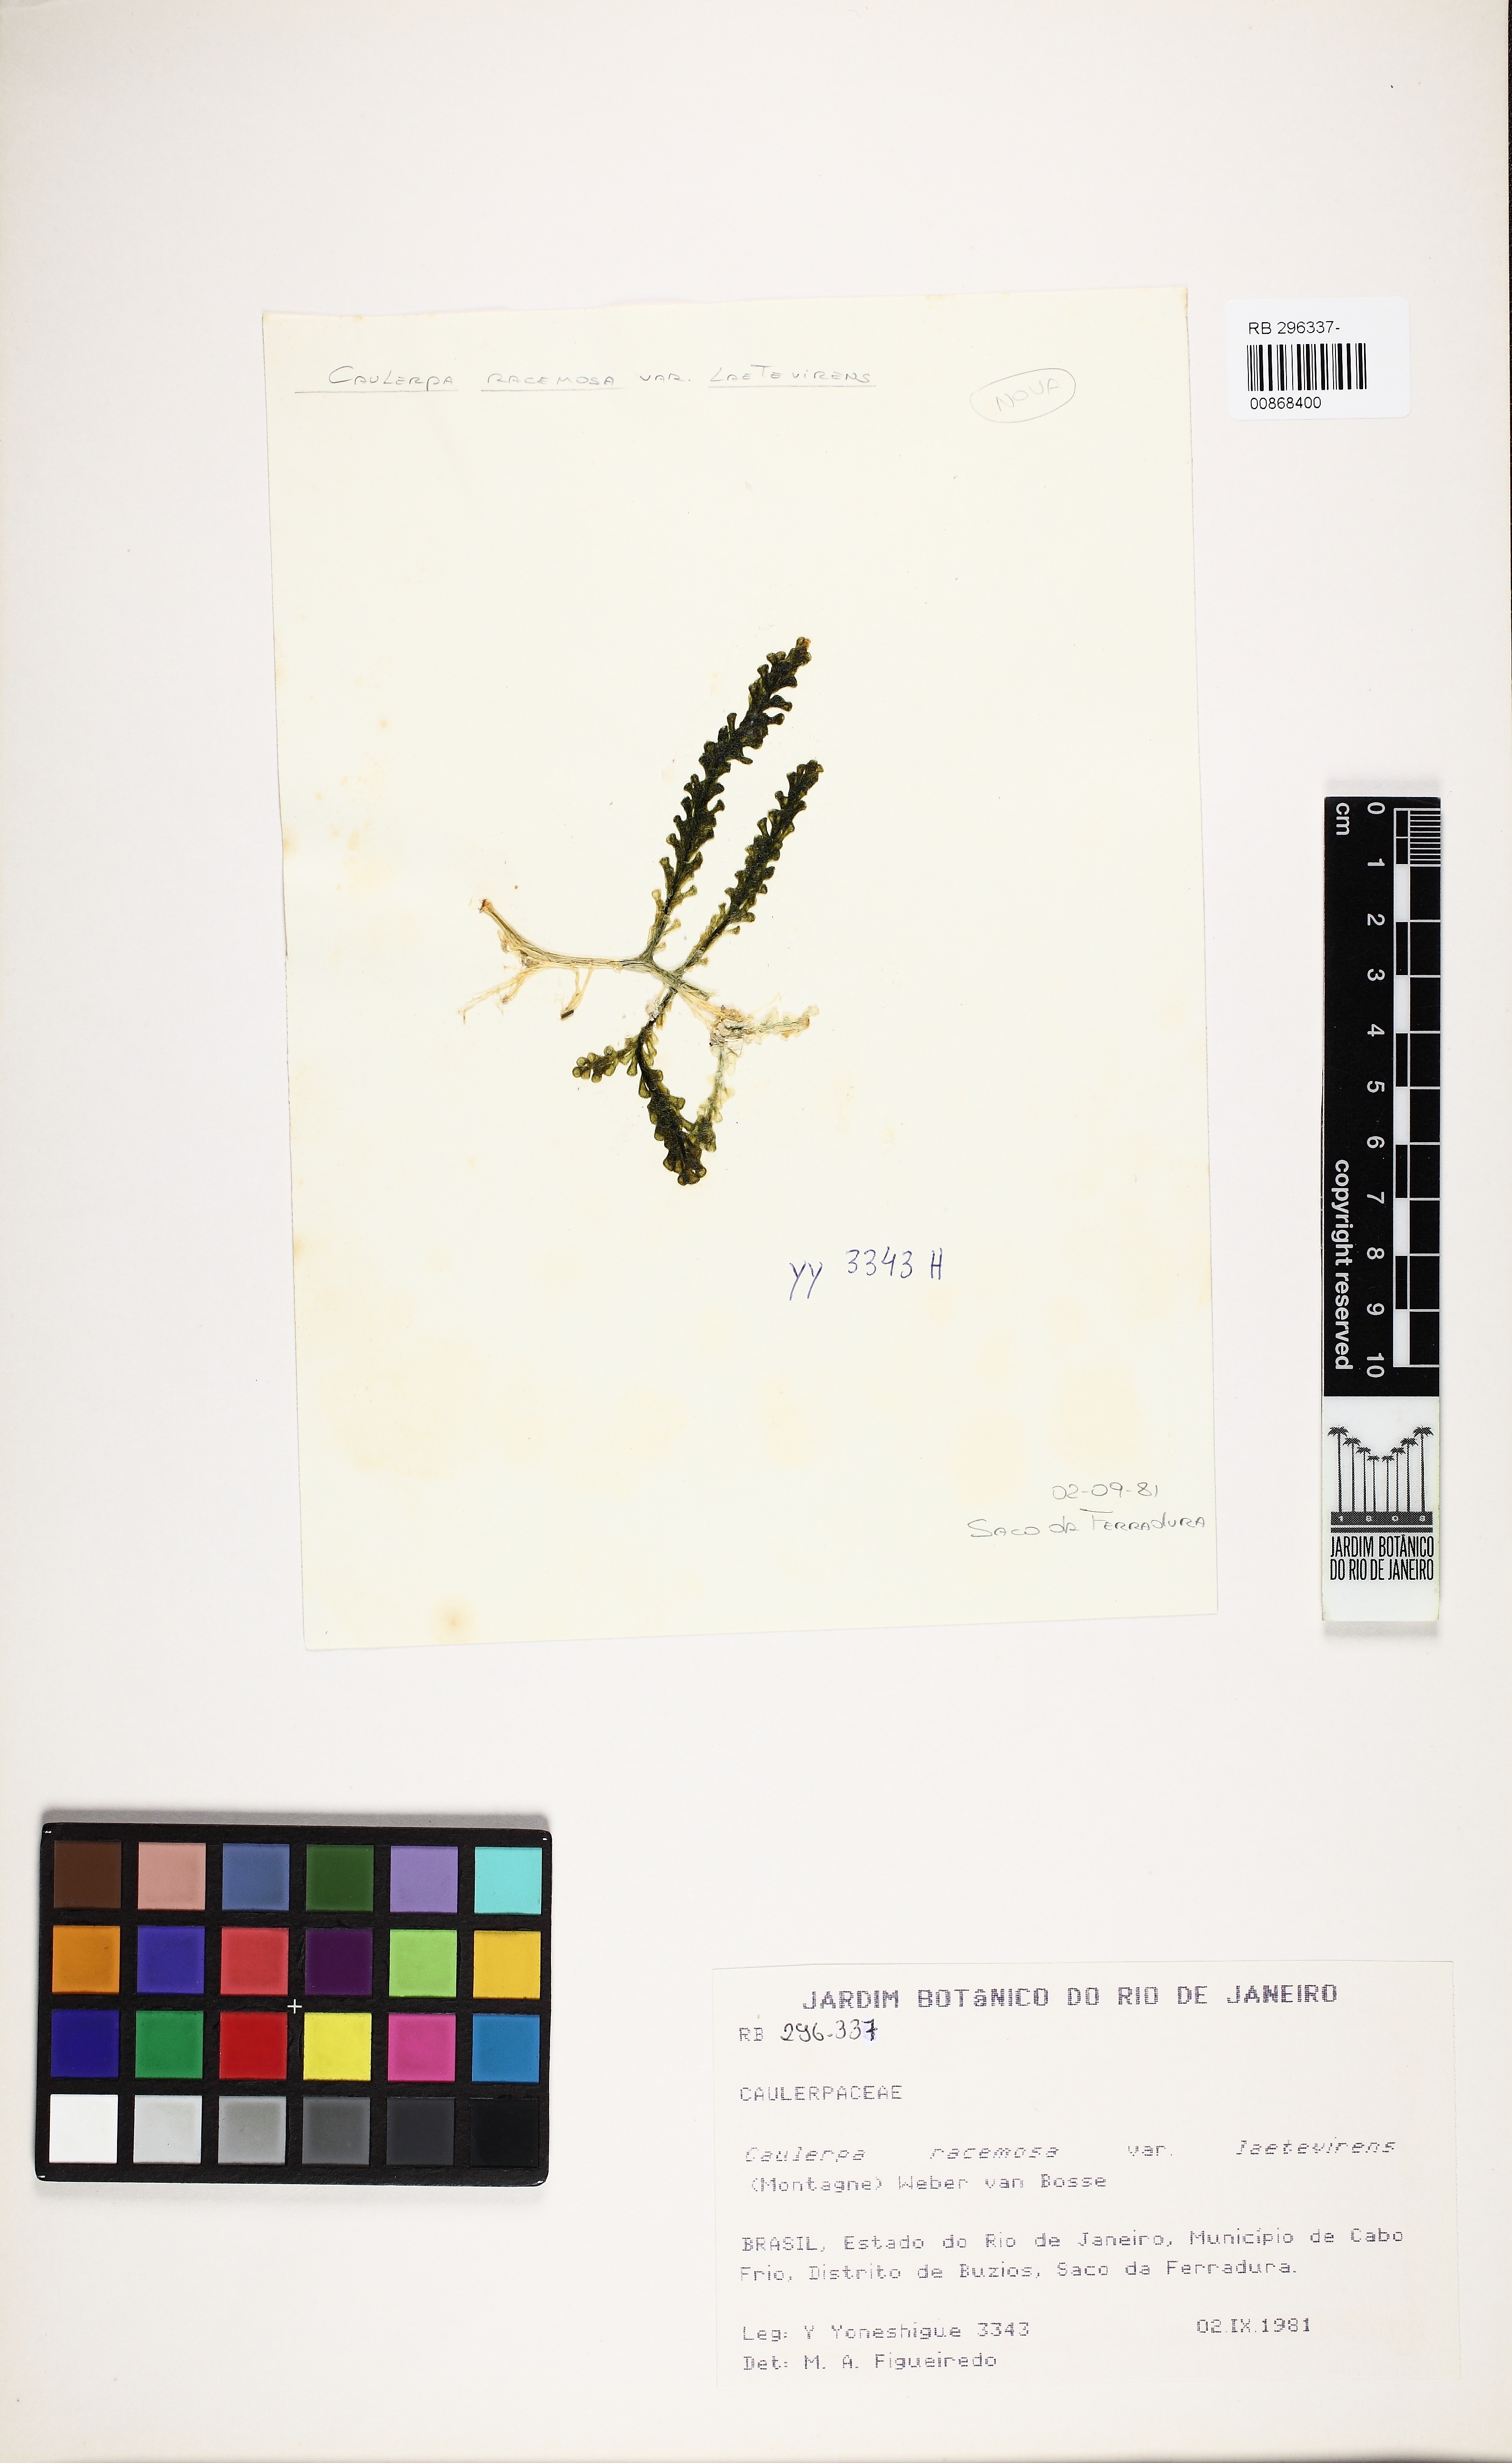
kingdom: Plantae
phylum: Chlorophyta
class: Ulvophyceae
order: Bryopsidales
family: Caulerpaceae
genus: Caulerpa
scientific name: Caulerpa chemnitzia
